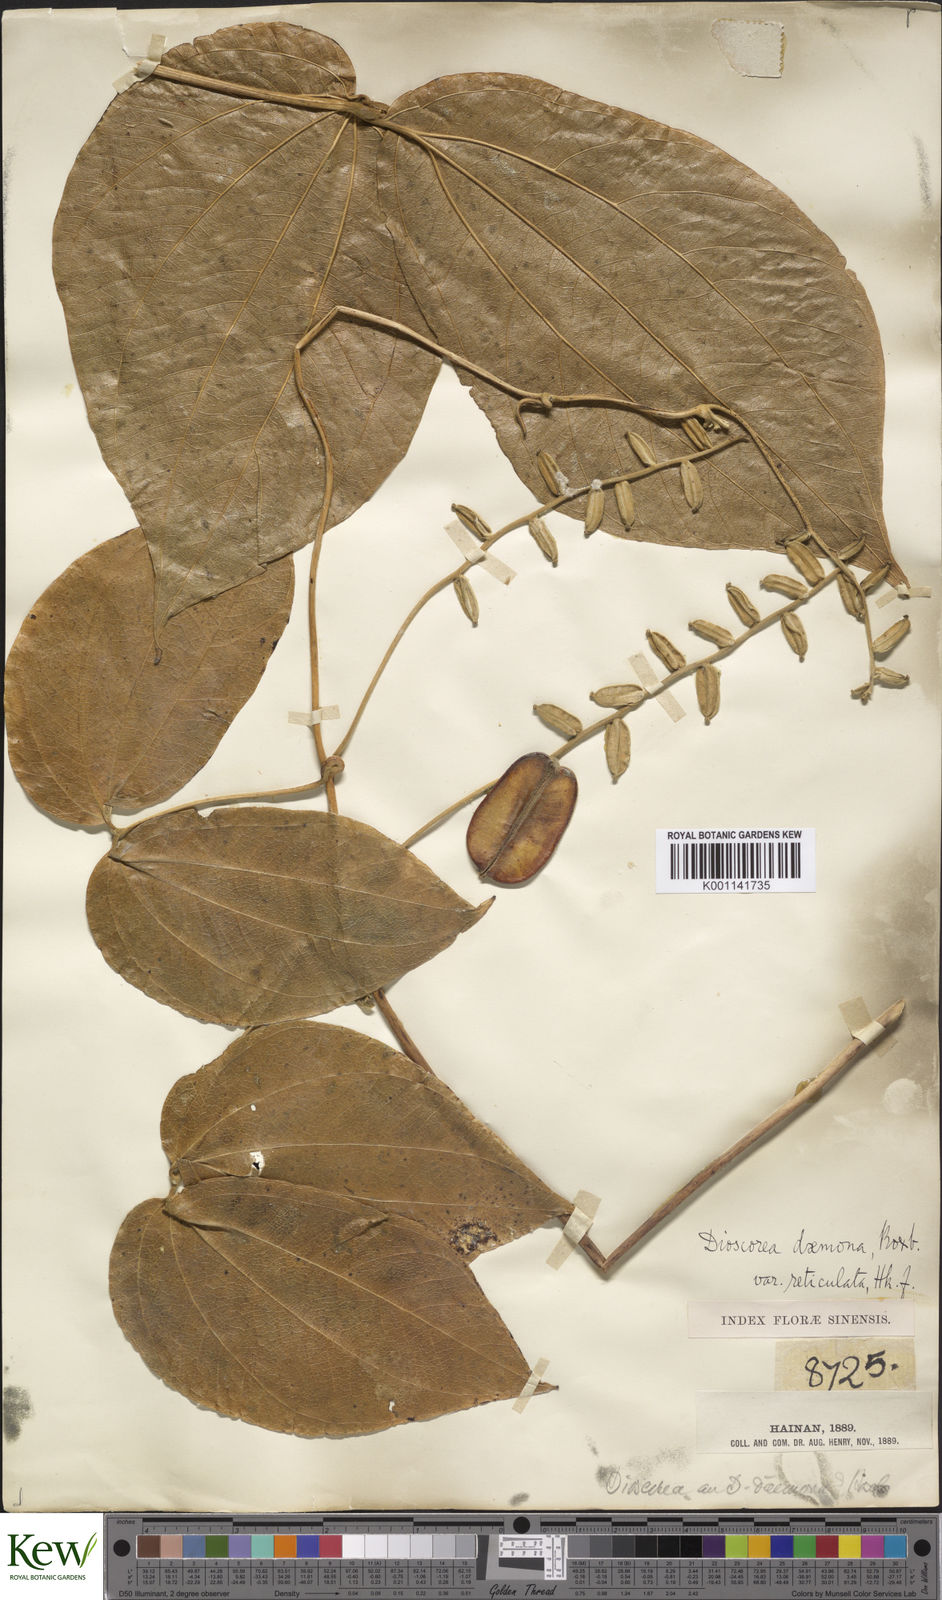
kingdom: Plantae
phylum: Tracheophyta
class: Liliopsida
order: Dioscoreales
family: Dioscoreaceae
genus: Dioscorea
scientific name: Dioscorea hispida
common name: Asiatic bitter yam
